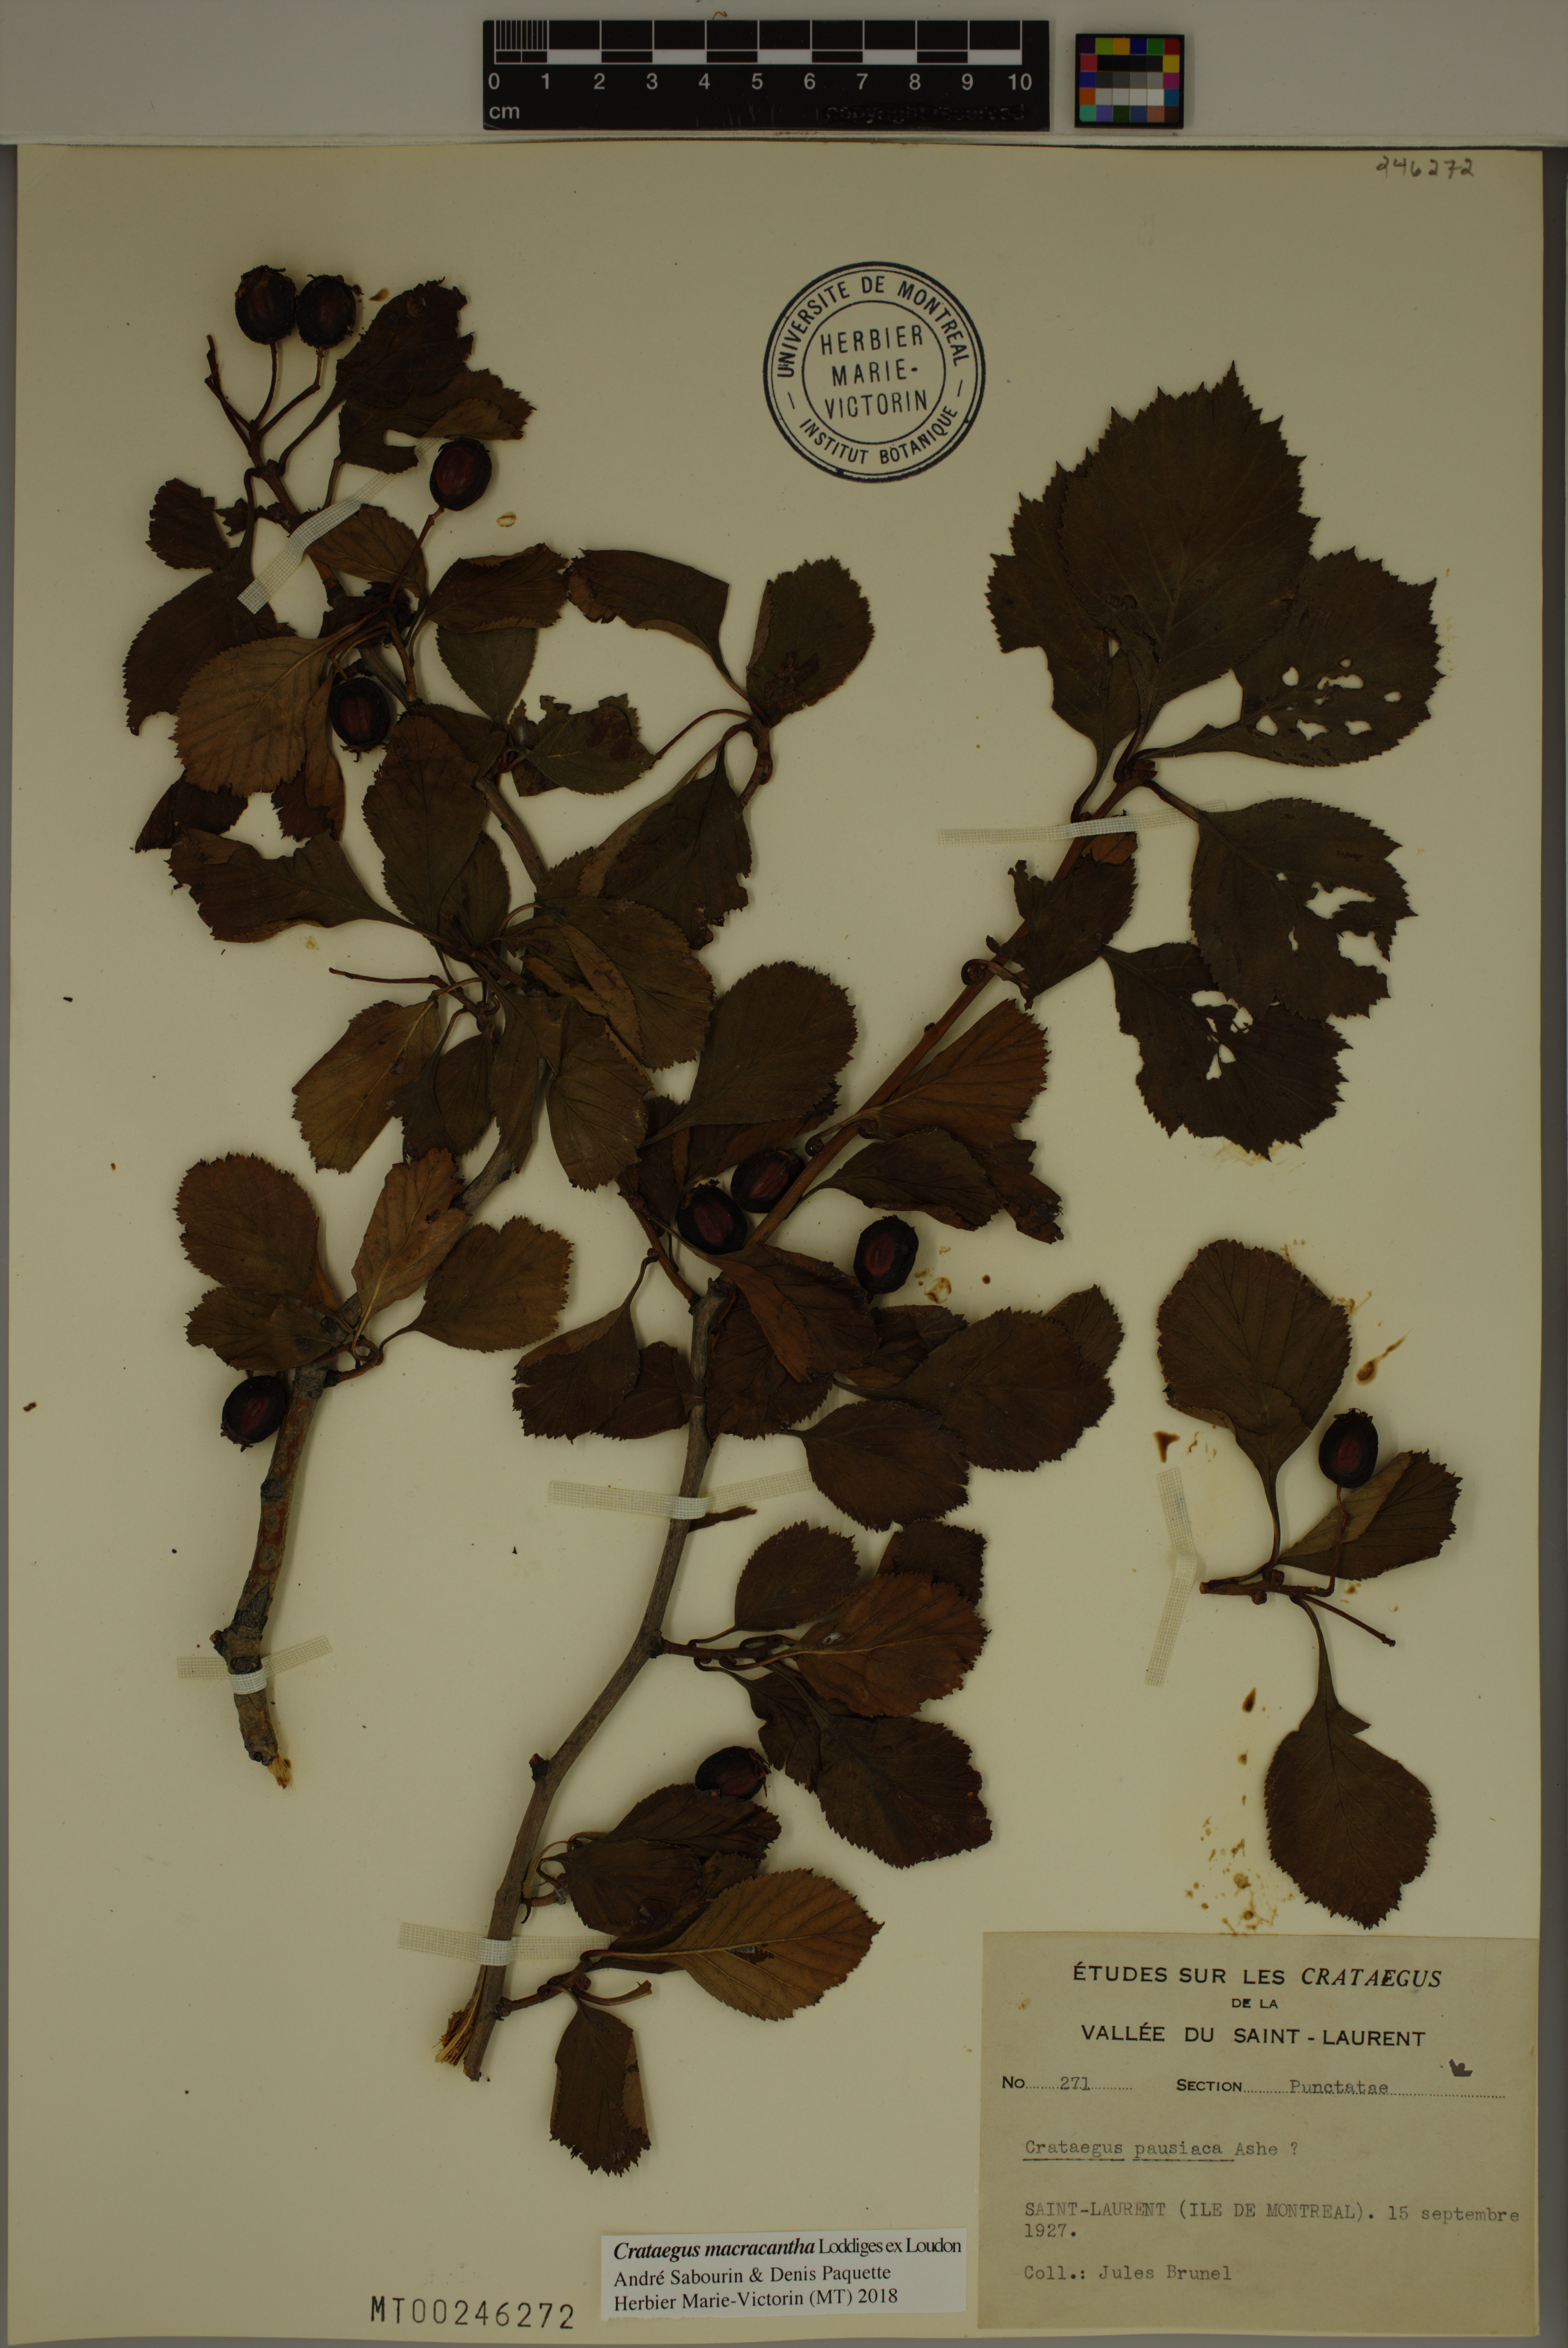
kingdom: Plantae
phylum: Tracheophyta
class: Magnoliopsida
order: Rosales
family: Rosaceae
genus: Crataegus
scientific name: Crataegus macracantha
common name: Large-thorn hawthorn
